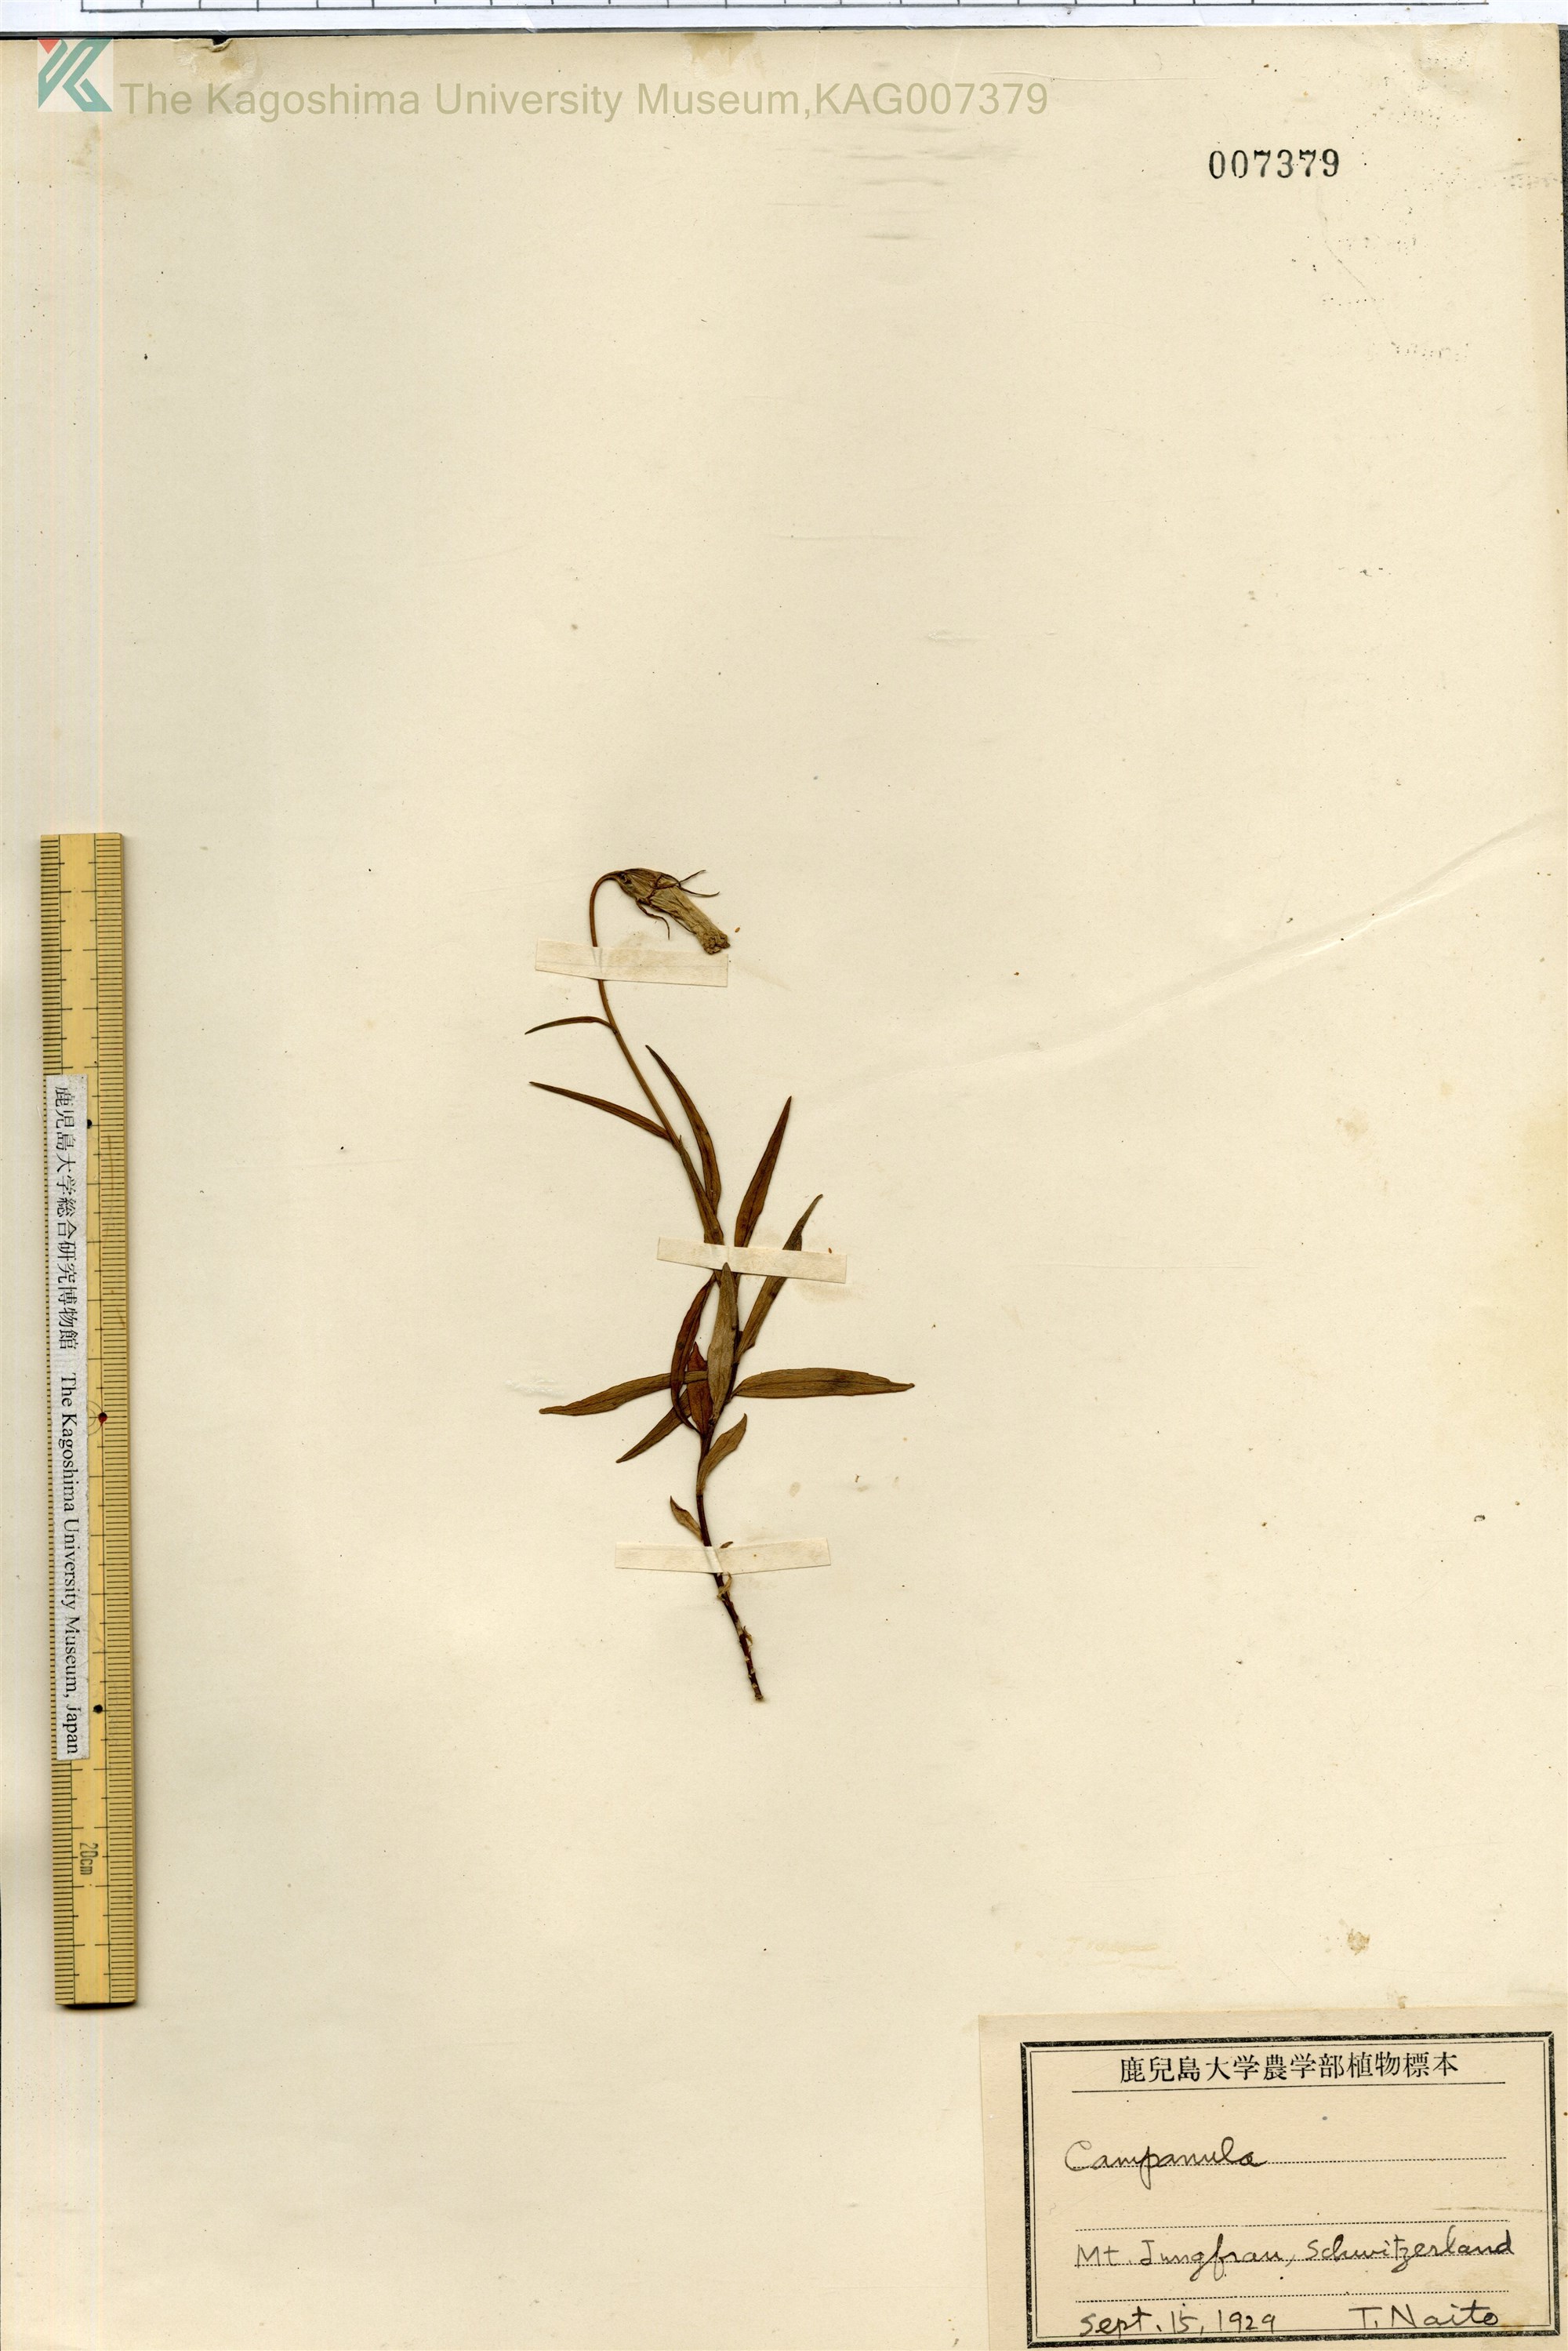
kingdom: Plantae
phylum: Tracheophyta
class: Magnoliopsida
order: Asterales
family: Campanulaceae
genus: Campanula
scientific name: Campanula
